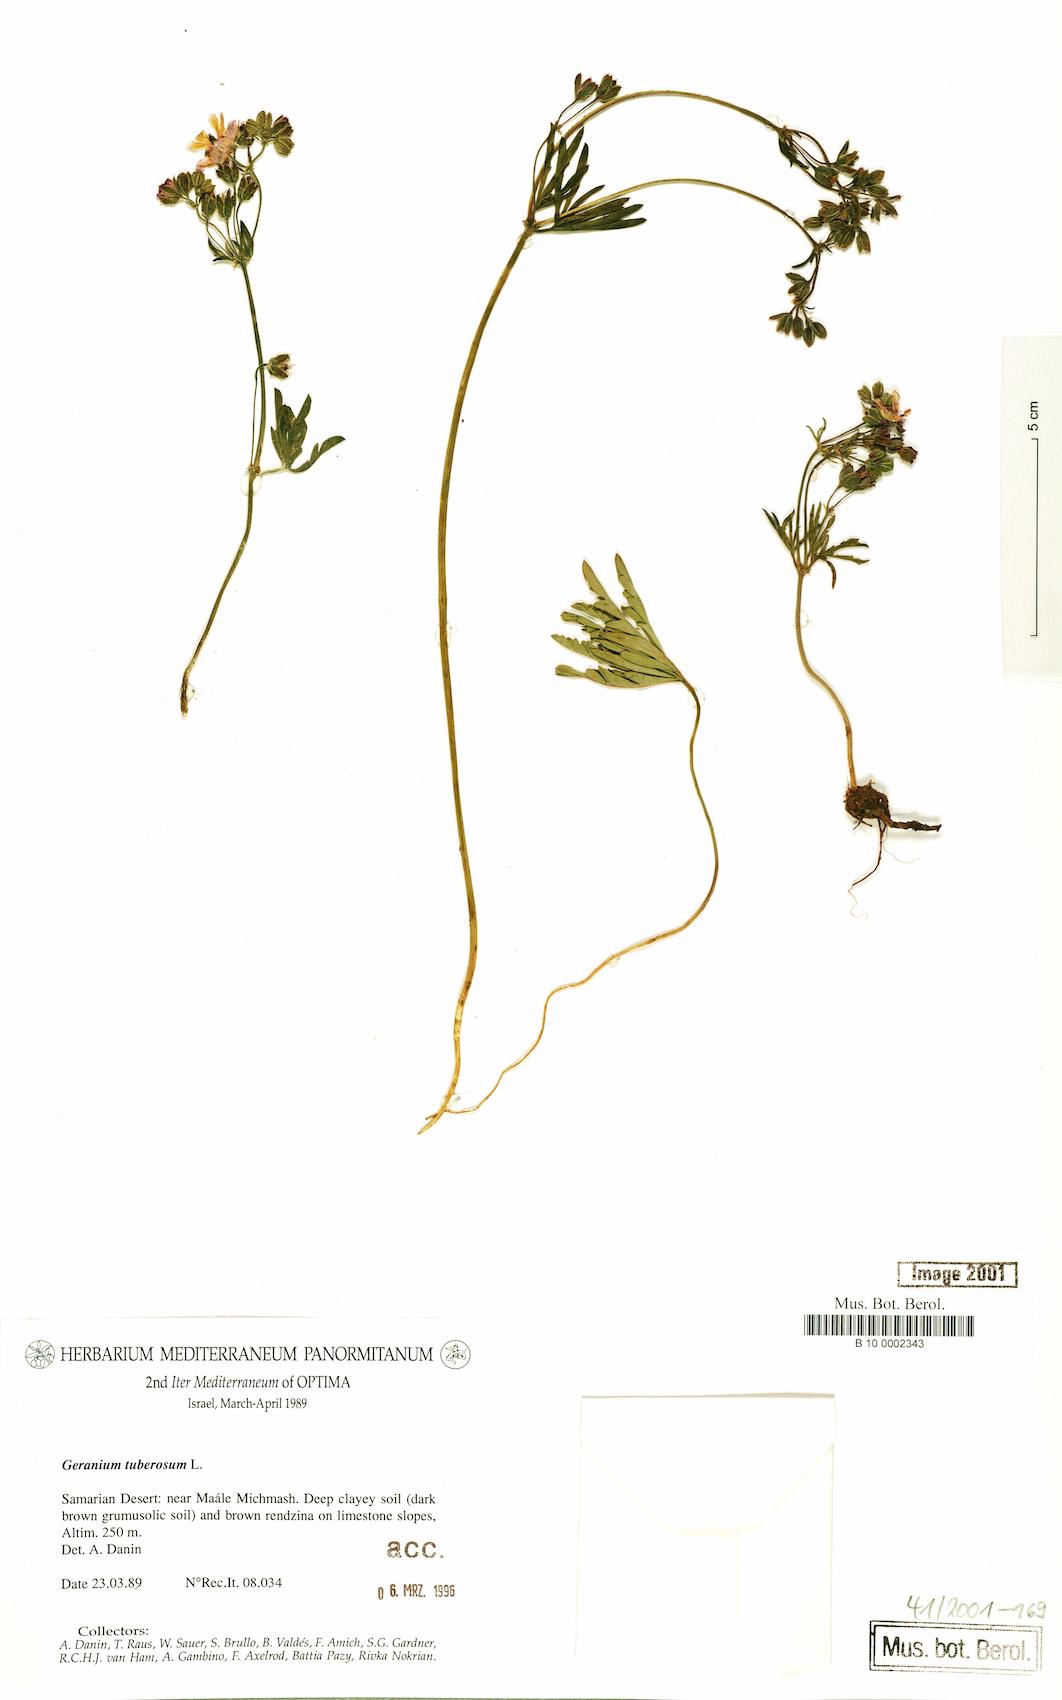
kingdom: Plantae
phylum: Tracheophyta
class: Magnoliopsida
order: Geraniales
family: Geraniaceae
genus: Geranium
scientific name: Geranium tuberosum
